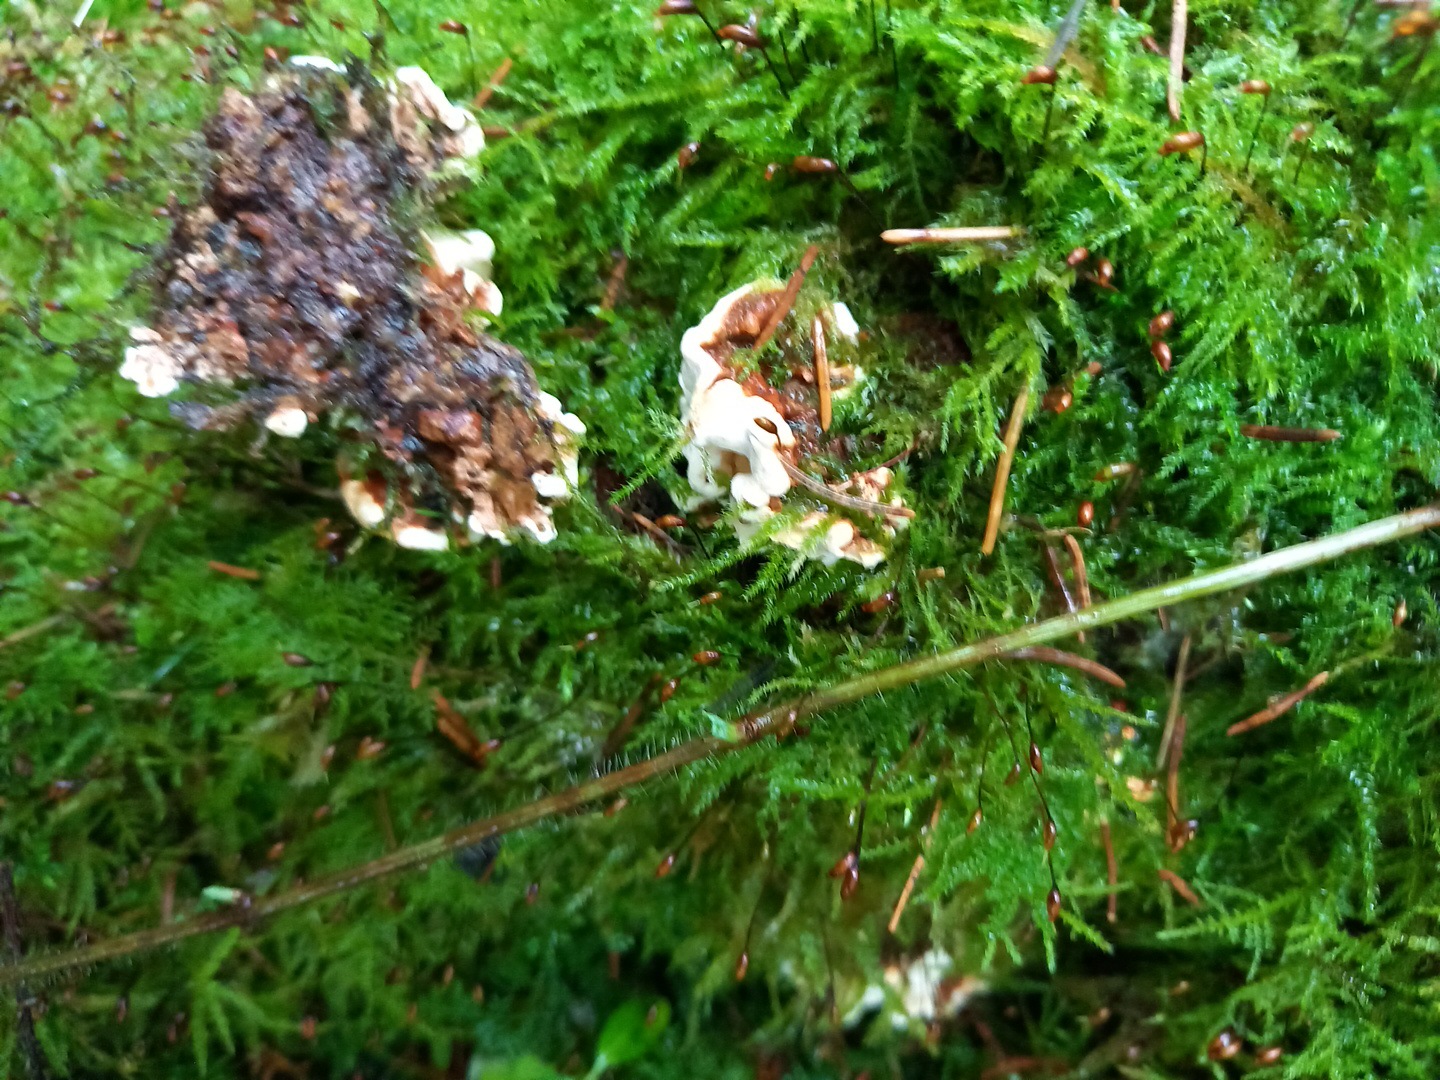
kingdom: Fungi
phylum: Basidiomycota
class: Agaricomycetes
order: Russulales
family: Bondarzewiaceae
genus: Heterobasidion
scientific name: Heterobasidion annosum
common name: almindelig rodfordærver
